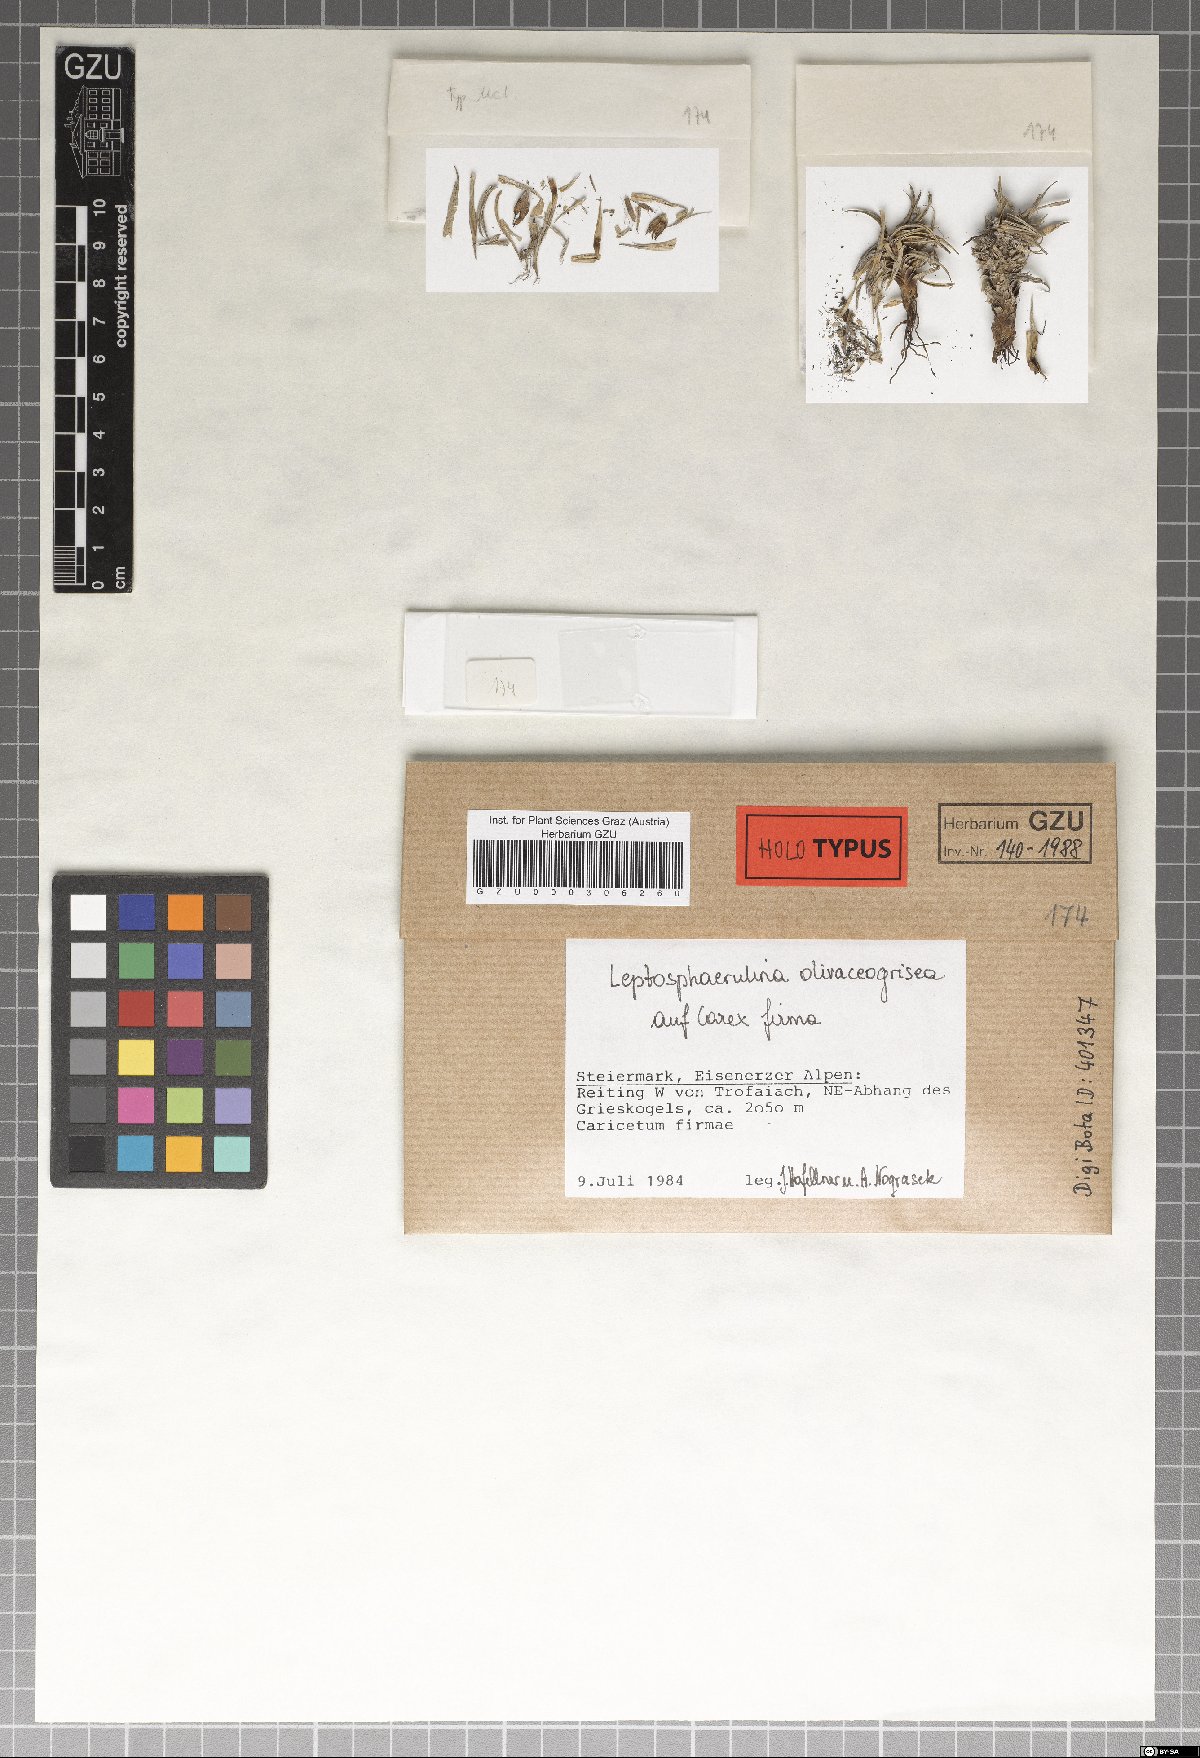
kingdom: Fungi
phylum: Ascomycota
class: Dothideomycetes
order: Pleosporales
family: Didymellaceae
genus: Leptosphaerulina
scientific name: Leptosphaerulina olivaceogrisea
